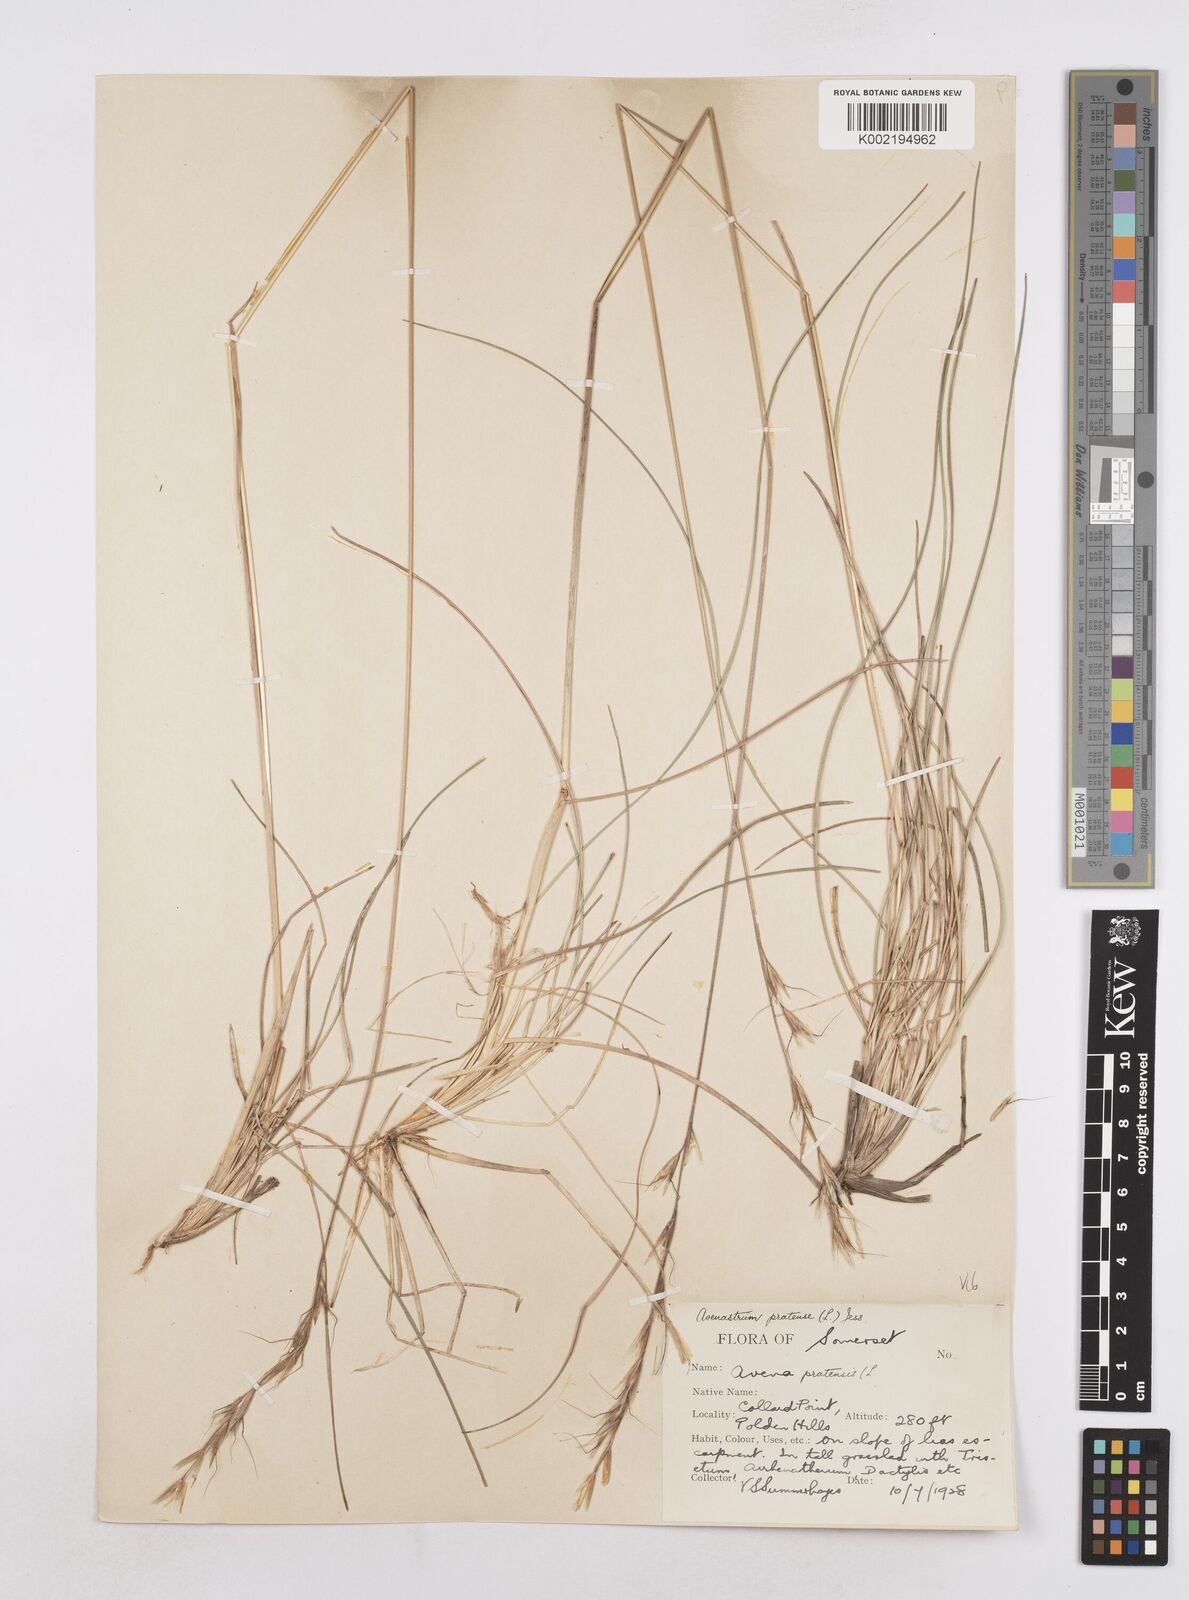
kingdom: Plantae
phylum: Tracheophyta
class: Liliopsida
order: Poales
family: Poaceae
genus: Helictochloa
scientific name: Helictochloa pratensis
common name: Meadow oat grass
